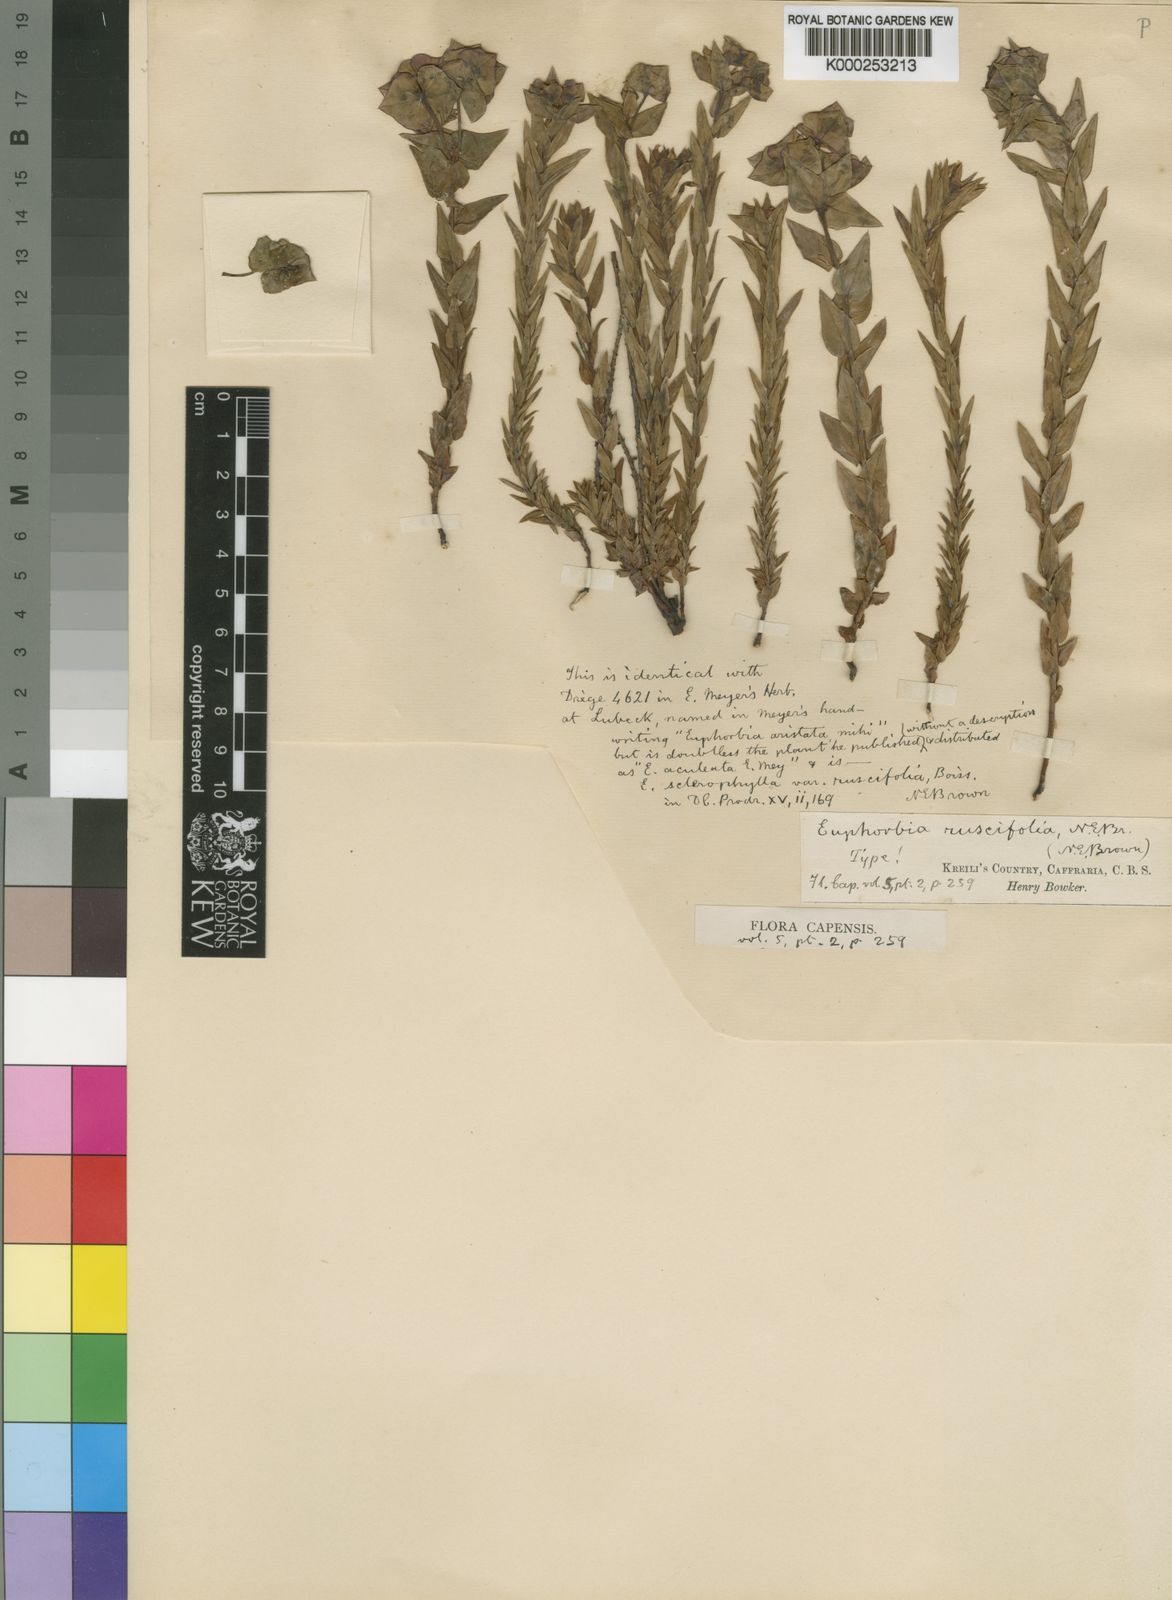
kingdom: Plantae
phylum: Tracheophyta
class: Magnoliopsida
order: Malpighiales
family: Euphorbiaceae
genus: Euphorbia
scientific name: Euphorbia ruscifolia
